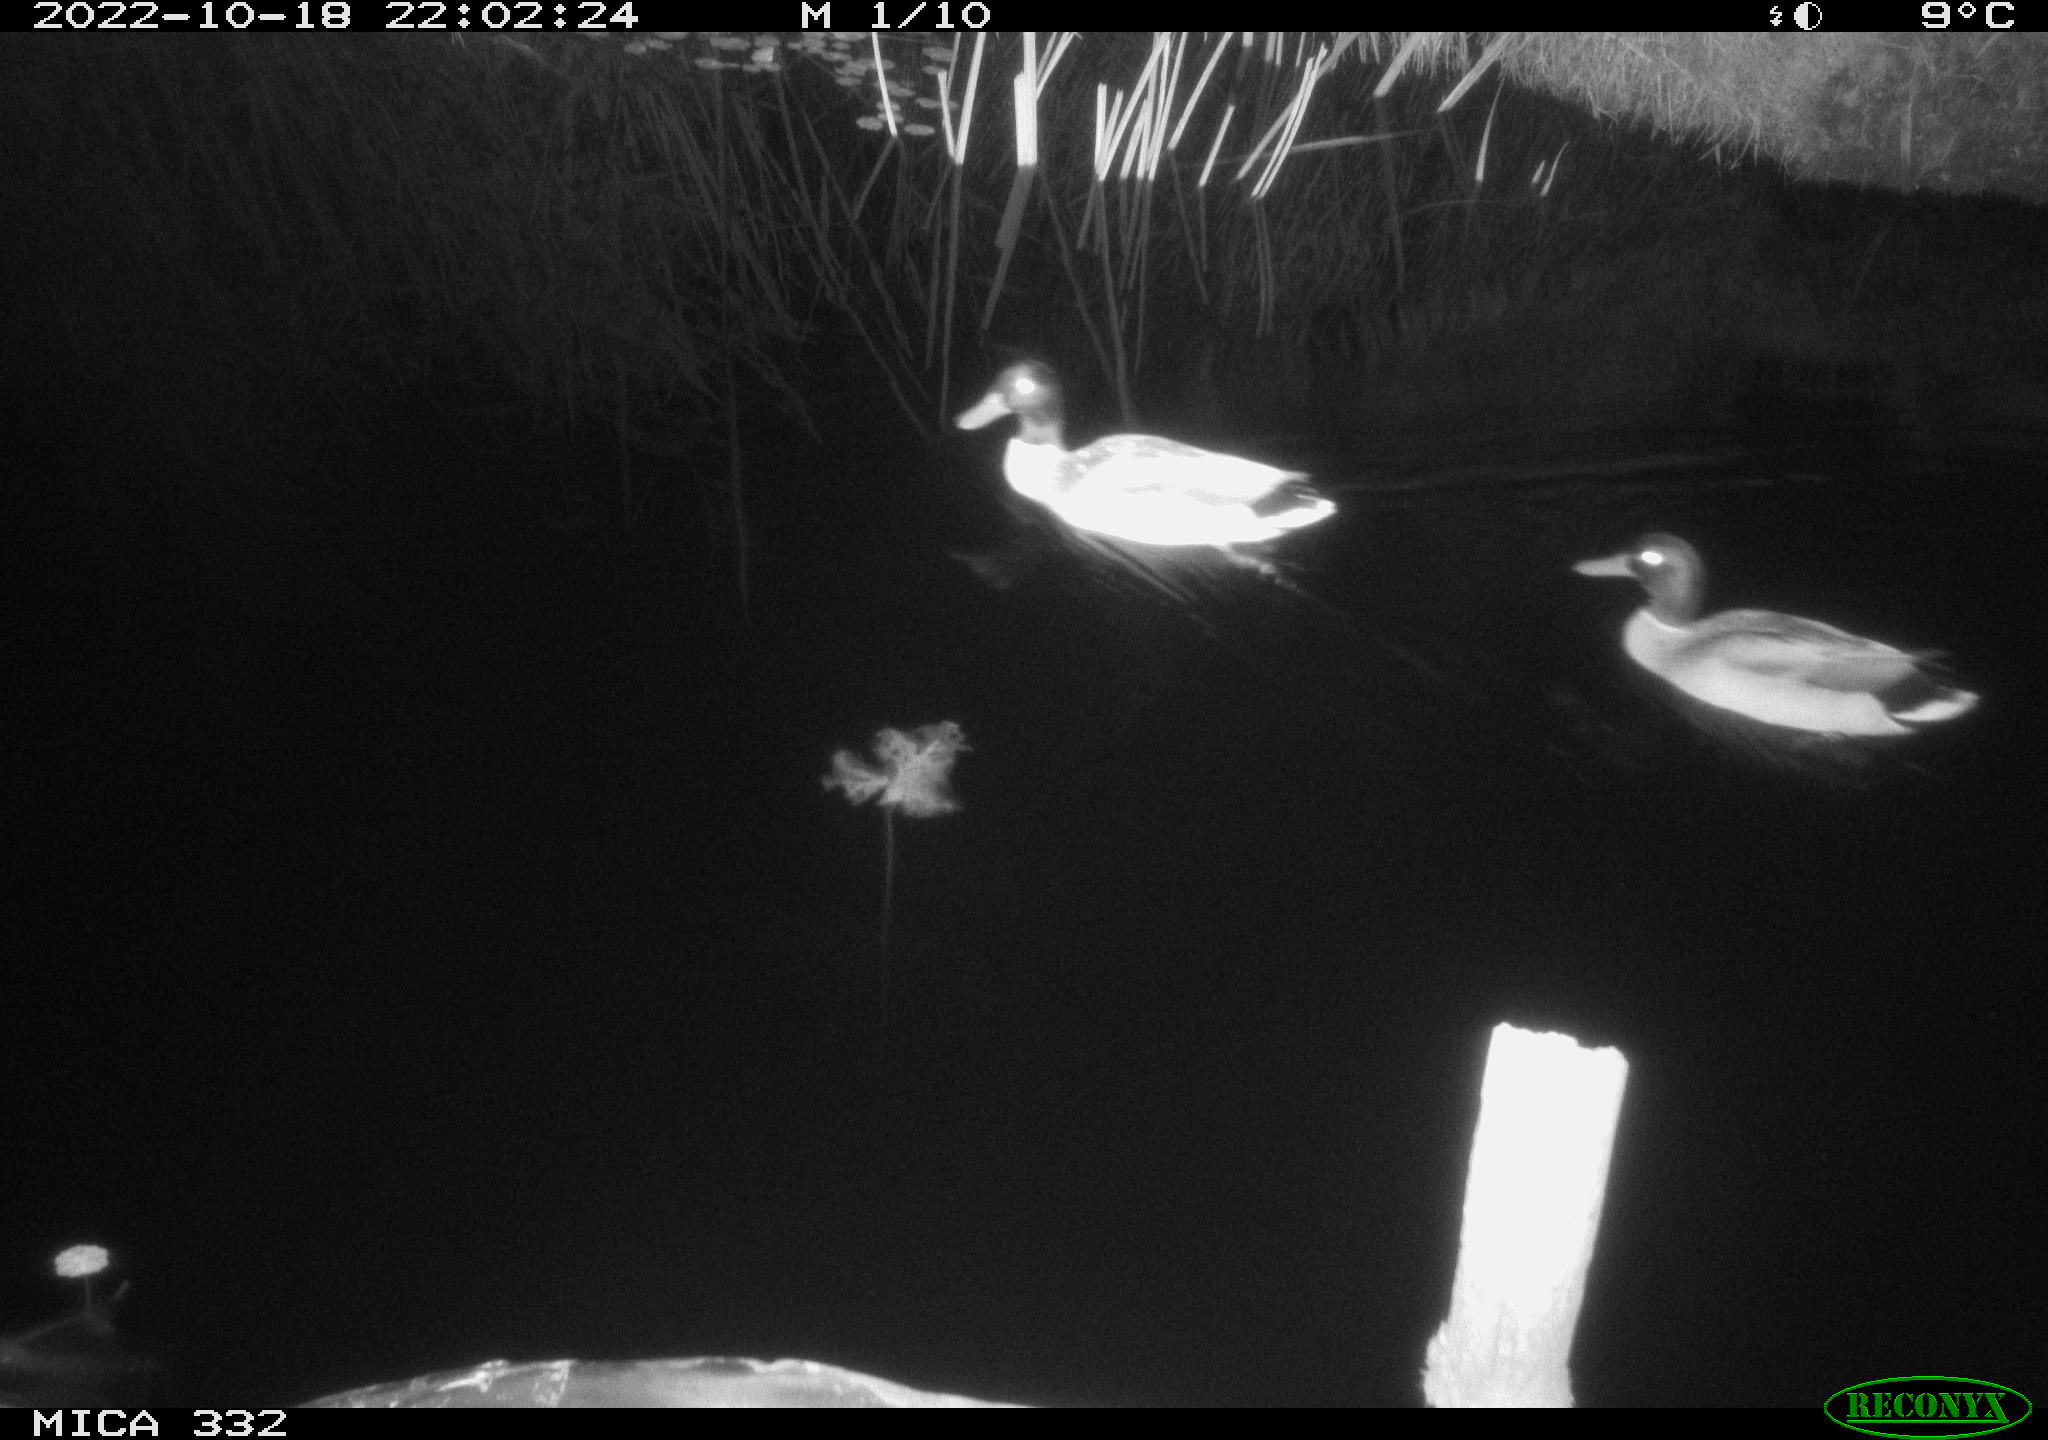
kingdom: Animalia
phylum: Chordata
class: Aves
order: Anseriformes
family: Anatidae
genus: Anas
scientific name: Anas platyrhynchos
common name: Mallard
